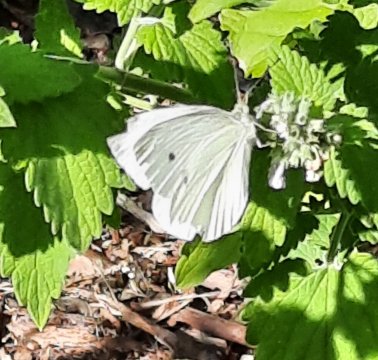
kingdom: Animalia
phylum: Arthropoda
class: Insecta
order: Lepidoptera
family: Pieridae
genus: Pieris
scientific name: Pieris rapae
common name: Cabbage White
